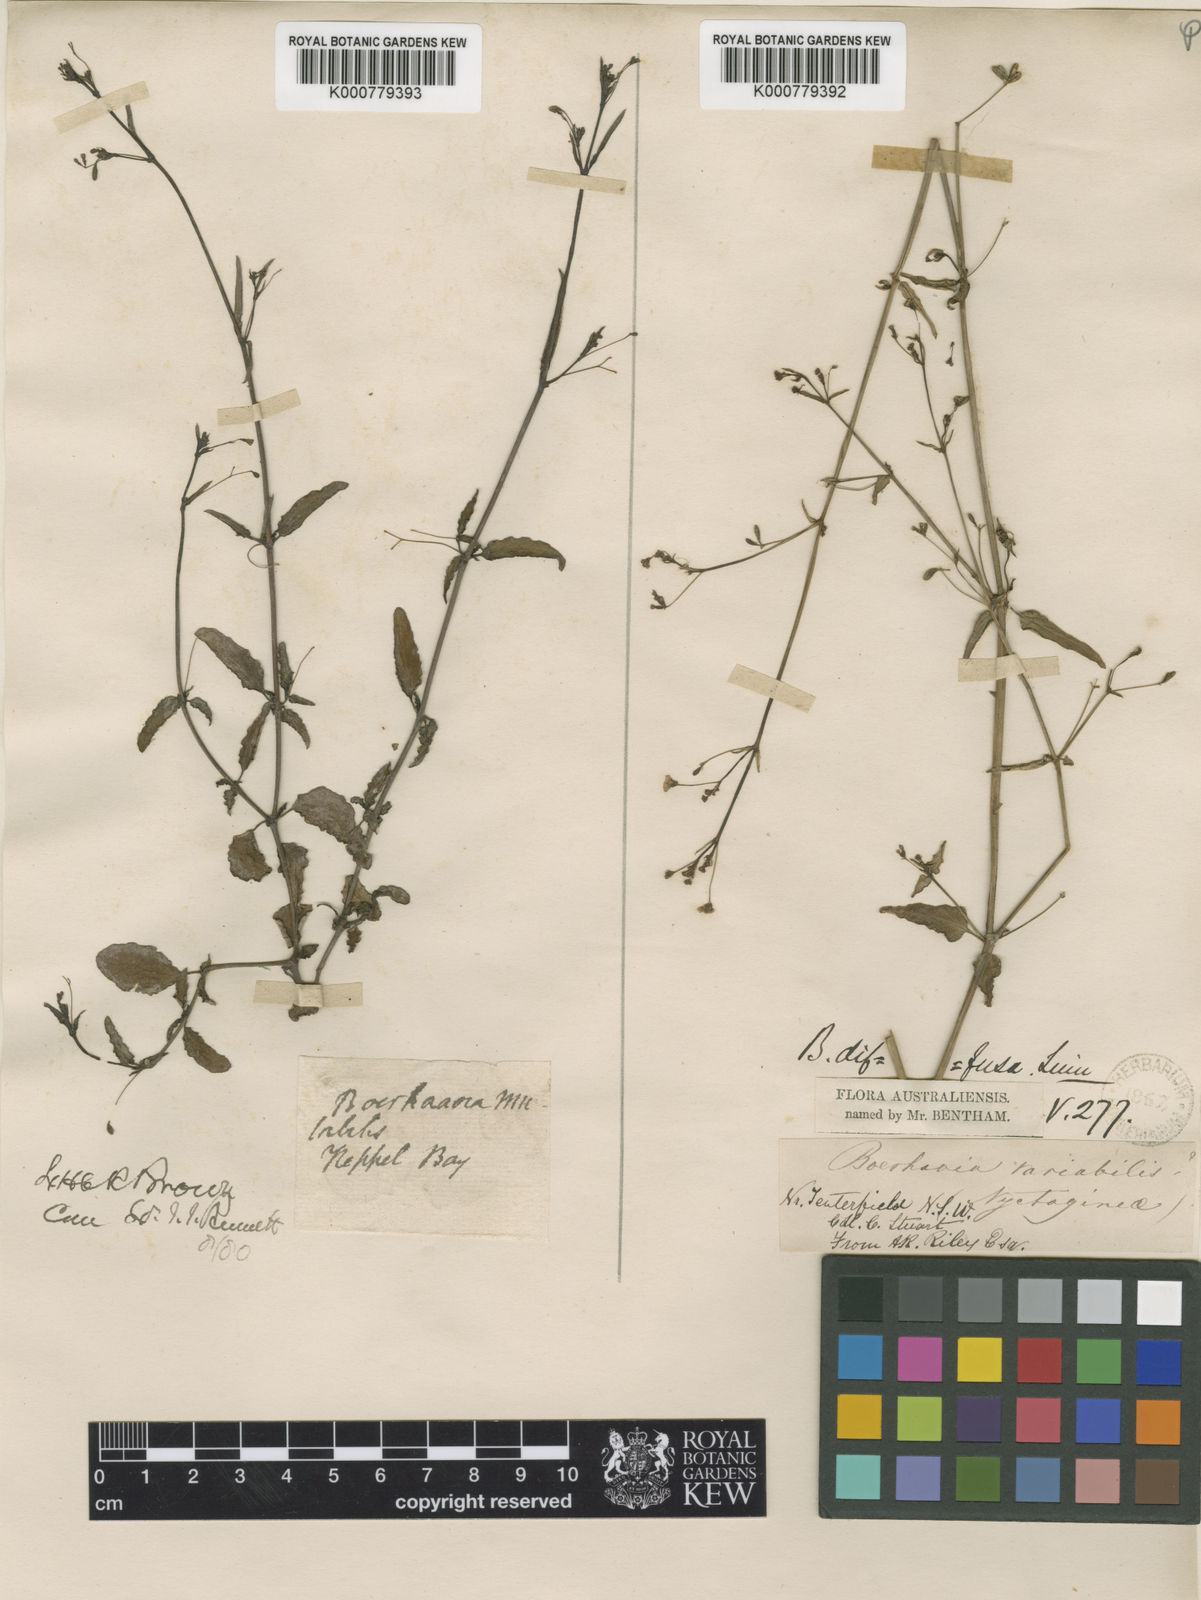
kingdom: Plantae
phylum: Tracheophyta
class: Magnoliopsida
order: Caryophyllales
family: Nyctaginaceae
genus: Boerhavia
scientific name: Boerhavia tetrandra
